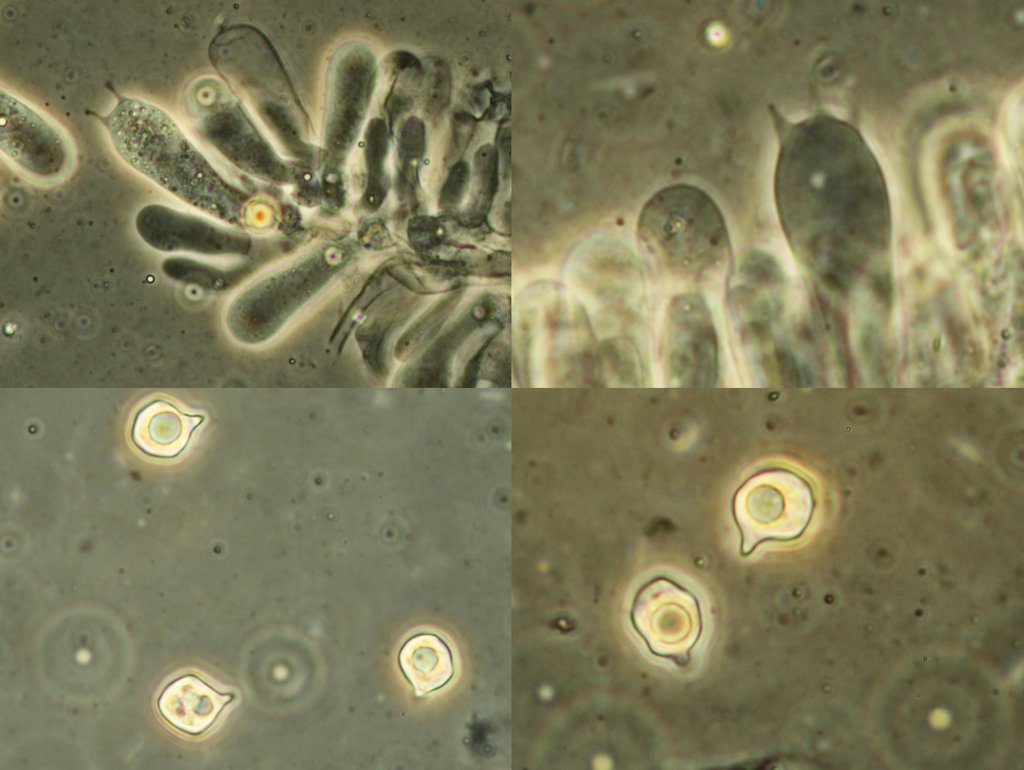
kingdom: Fungi
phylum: Basidiomycota
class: Agaricomycetes
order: Agaricales
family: Entolomataceae
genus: Entoloma
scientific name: Entoloma minutum
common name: liden rødblad
